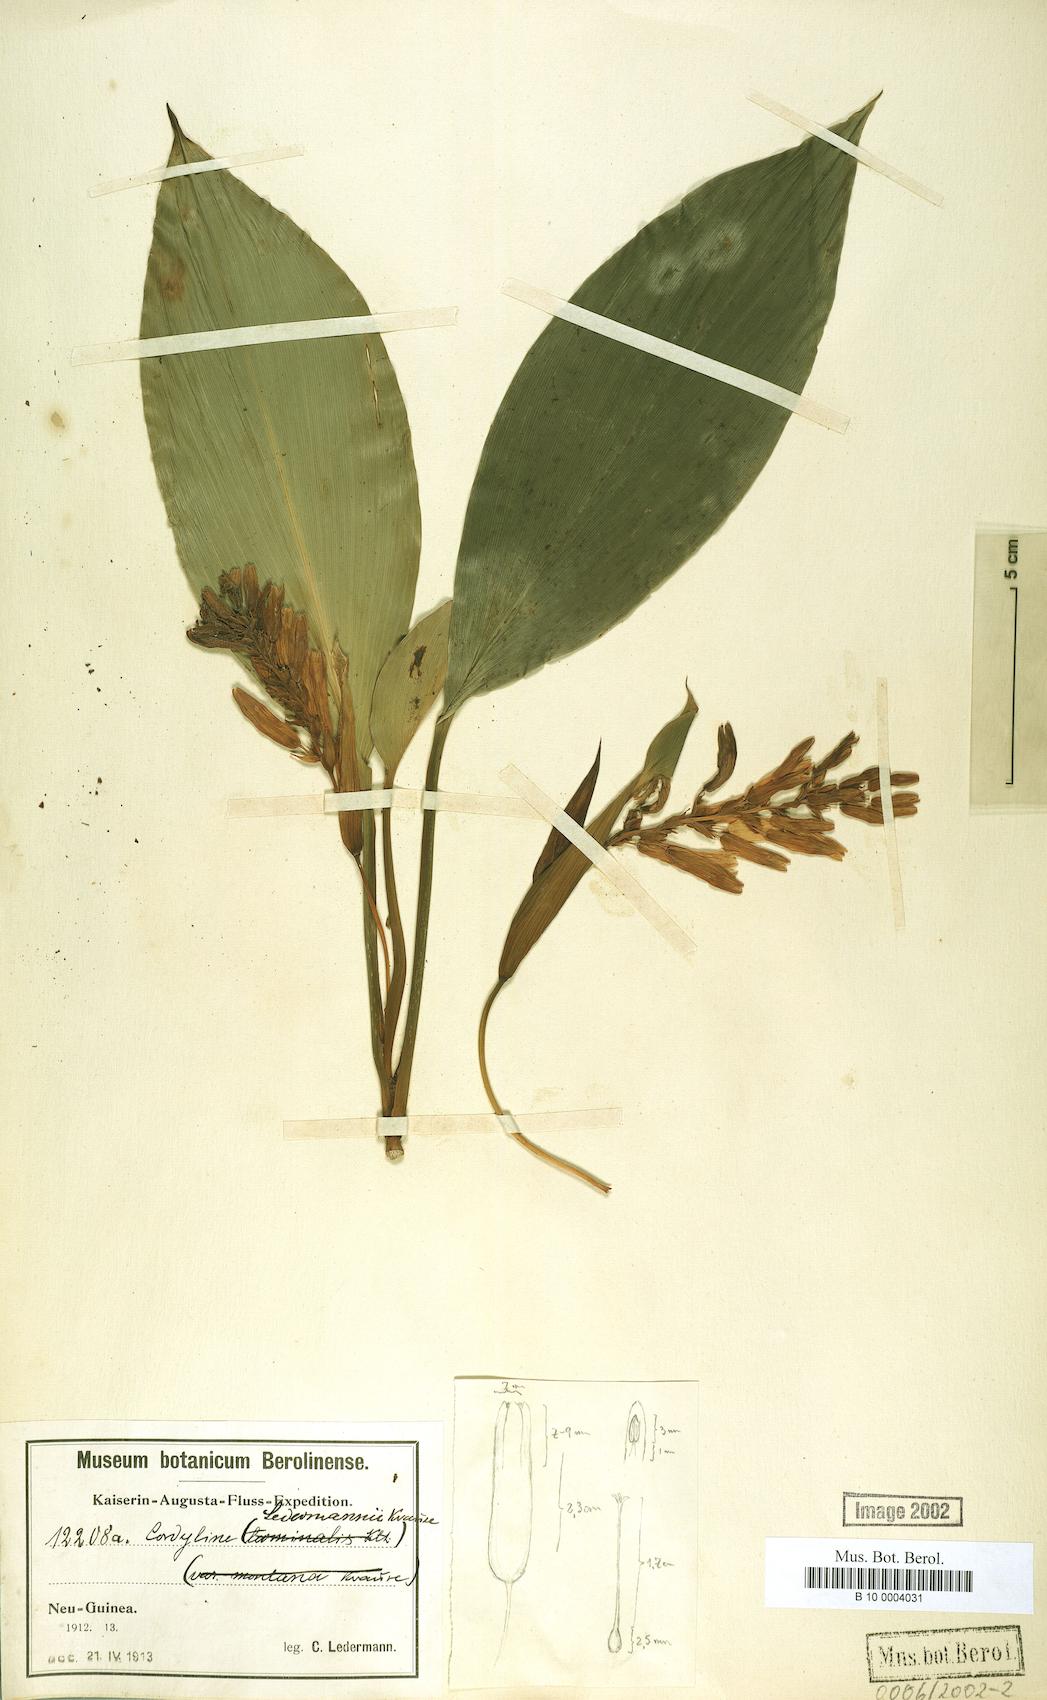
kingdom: Plantae
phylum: Tracheophyta
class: Liliopsida
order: Asparagales
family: Asparagaceae
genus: Cordyline
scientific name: Cordyline ledermannii
